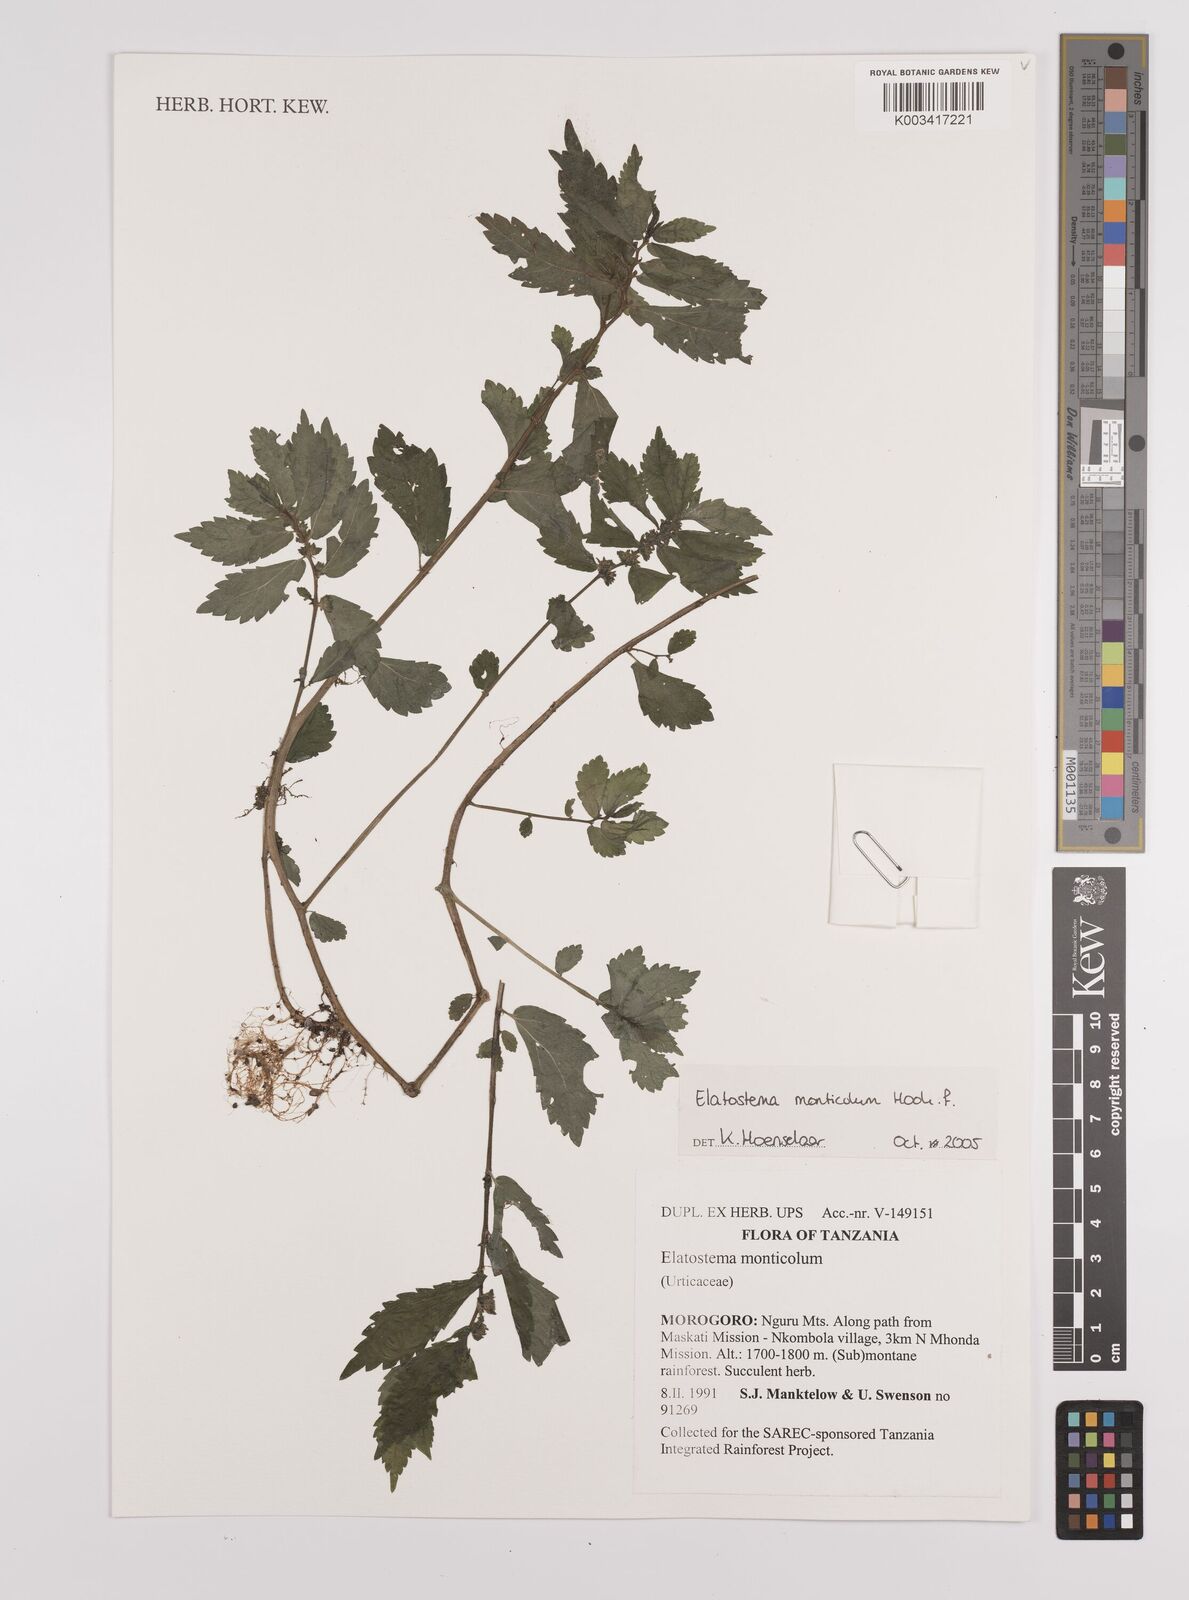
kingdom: Plantae
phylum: Tracheophyta
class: Magnoliopsida
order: Rosales
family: Urticaceae
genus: Elatostema
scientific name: Elatostema monticola
